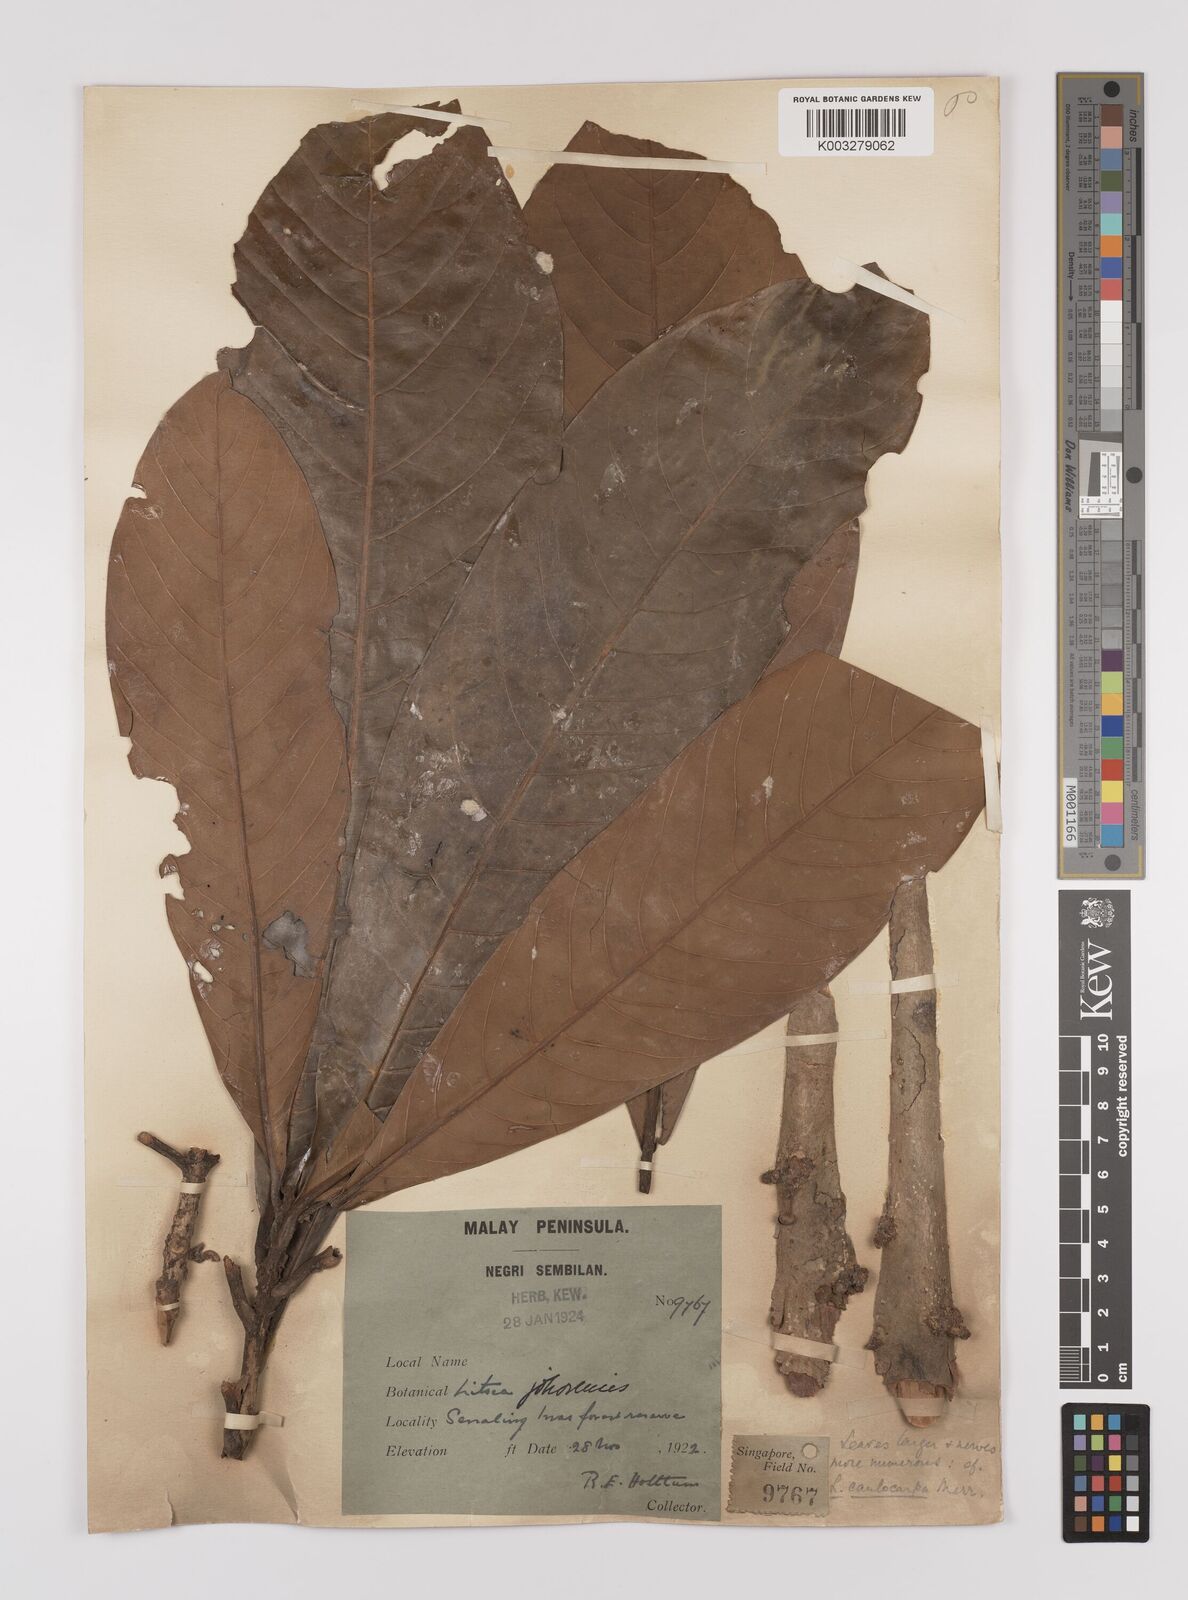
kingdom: Plantae
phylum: Tracheophyta
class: Magnoliopsida
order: Laurales
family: Lauraceae
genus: Litsea
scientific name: Litsea caulocarpa
